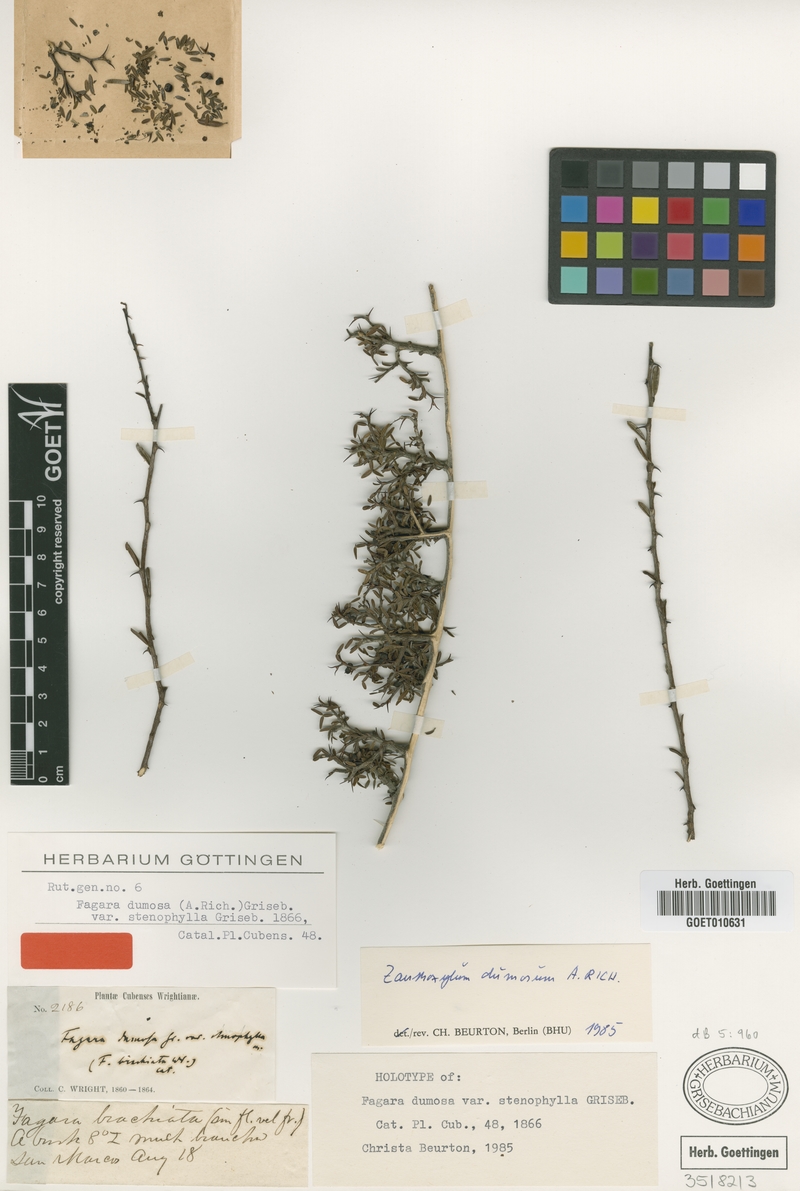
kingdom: Plantae
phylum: Tracheophyta
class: Magnoliopsida
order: Sapindales
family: Rutaceae
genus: Zanthoxylum
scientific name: Zanthoxylum dumosum
